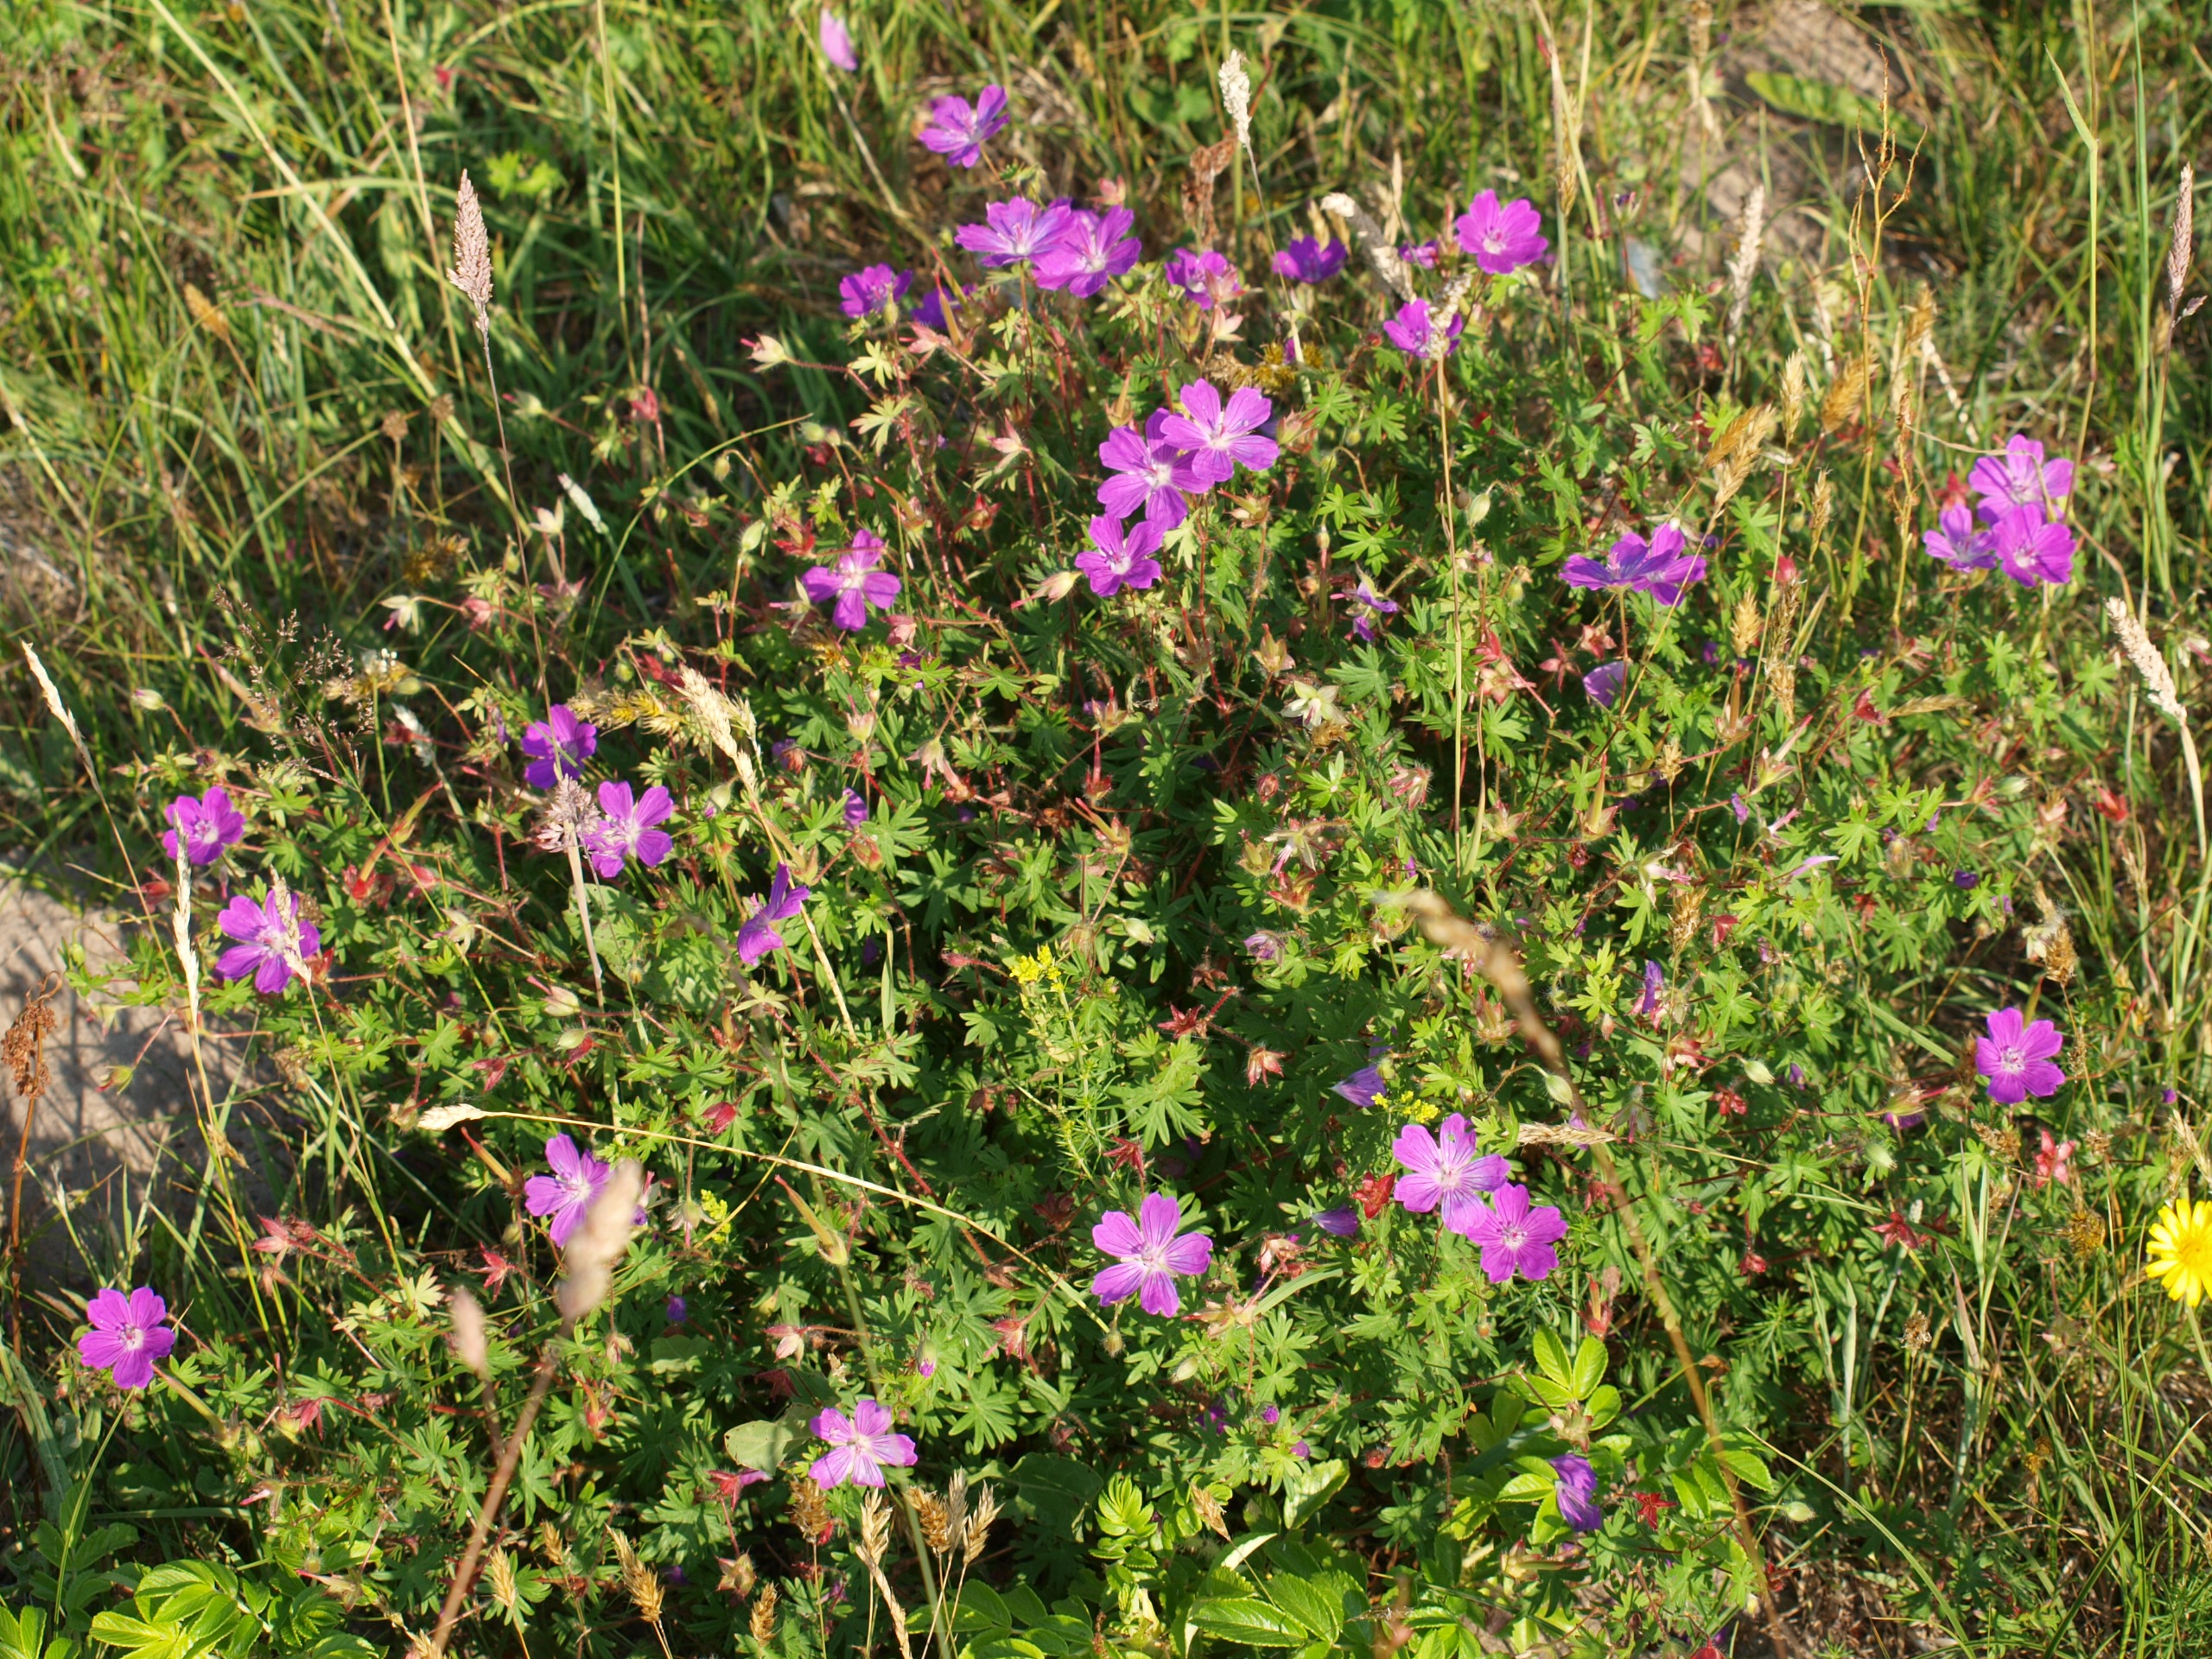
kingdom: Plantae
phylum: Tracheophyta
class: Magnoliopsida
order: Geraniales
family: Geraniaceae
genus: Geranium
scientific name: Geranium sanguineum
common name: Blodrød storkenæb
